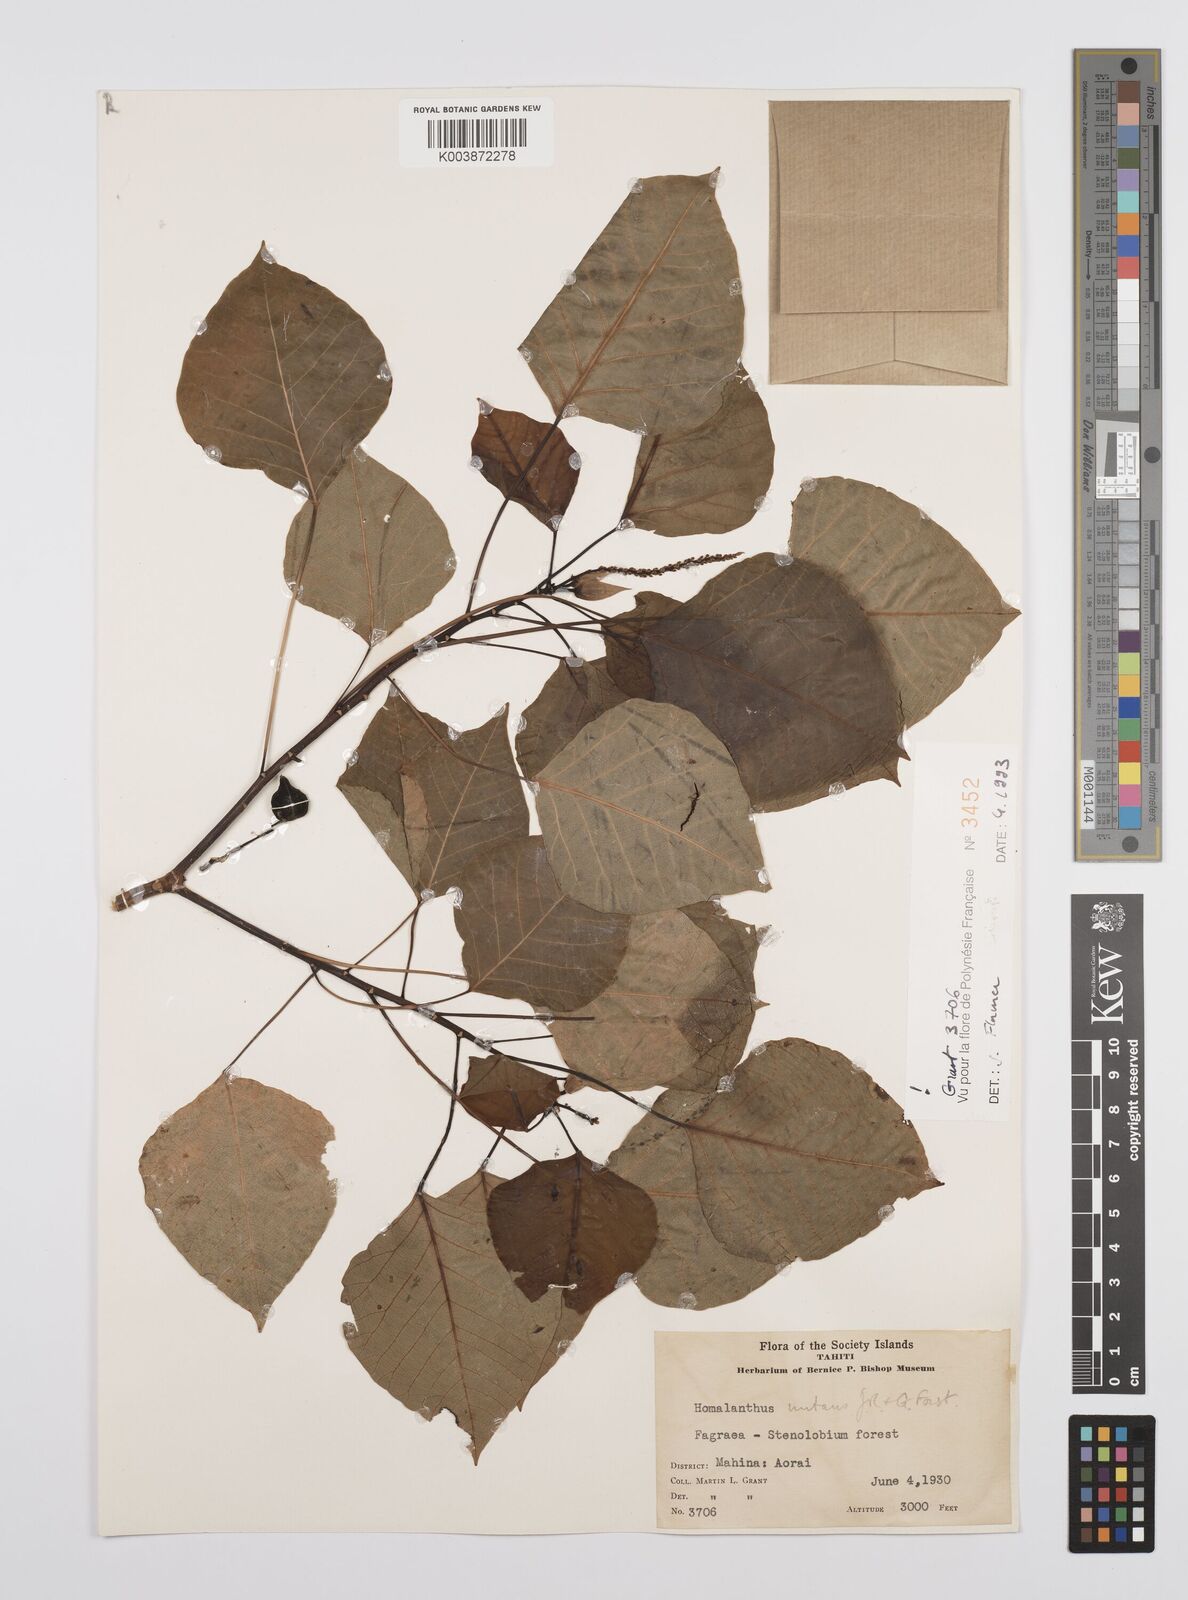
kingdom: Plantae
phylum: Tracheophyta
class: Magnoliopsida
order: Malpighiales
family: Euphorbiaceae
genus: Homalanthus
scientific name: Homalanthus nutans
